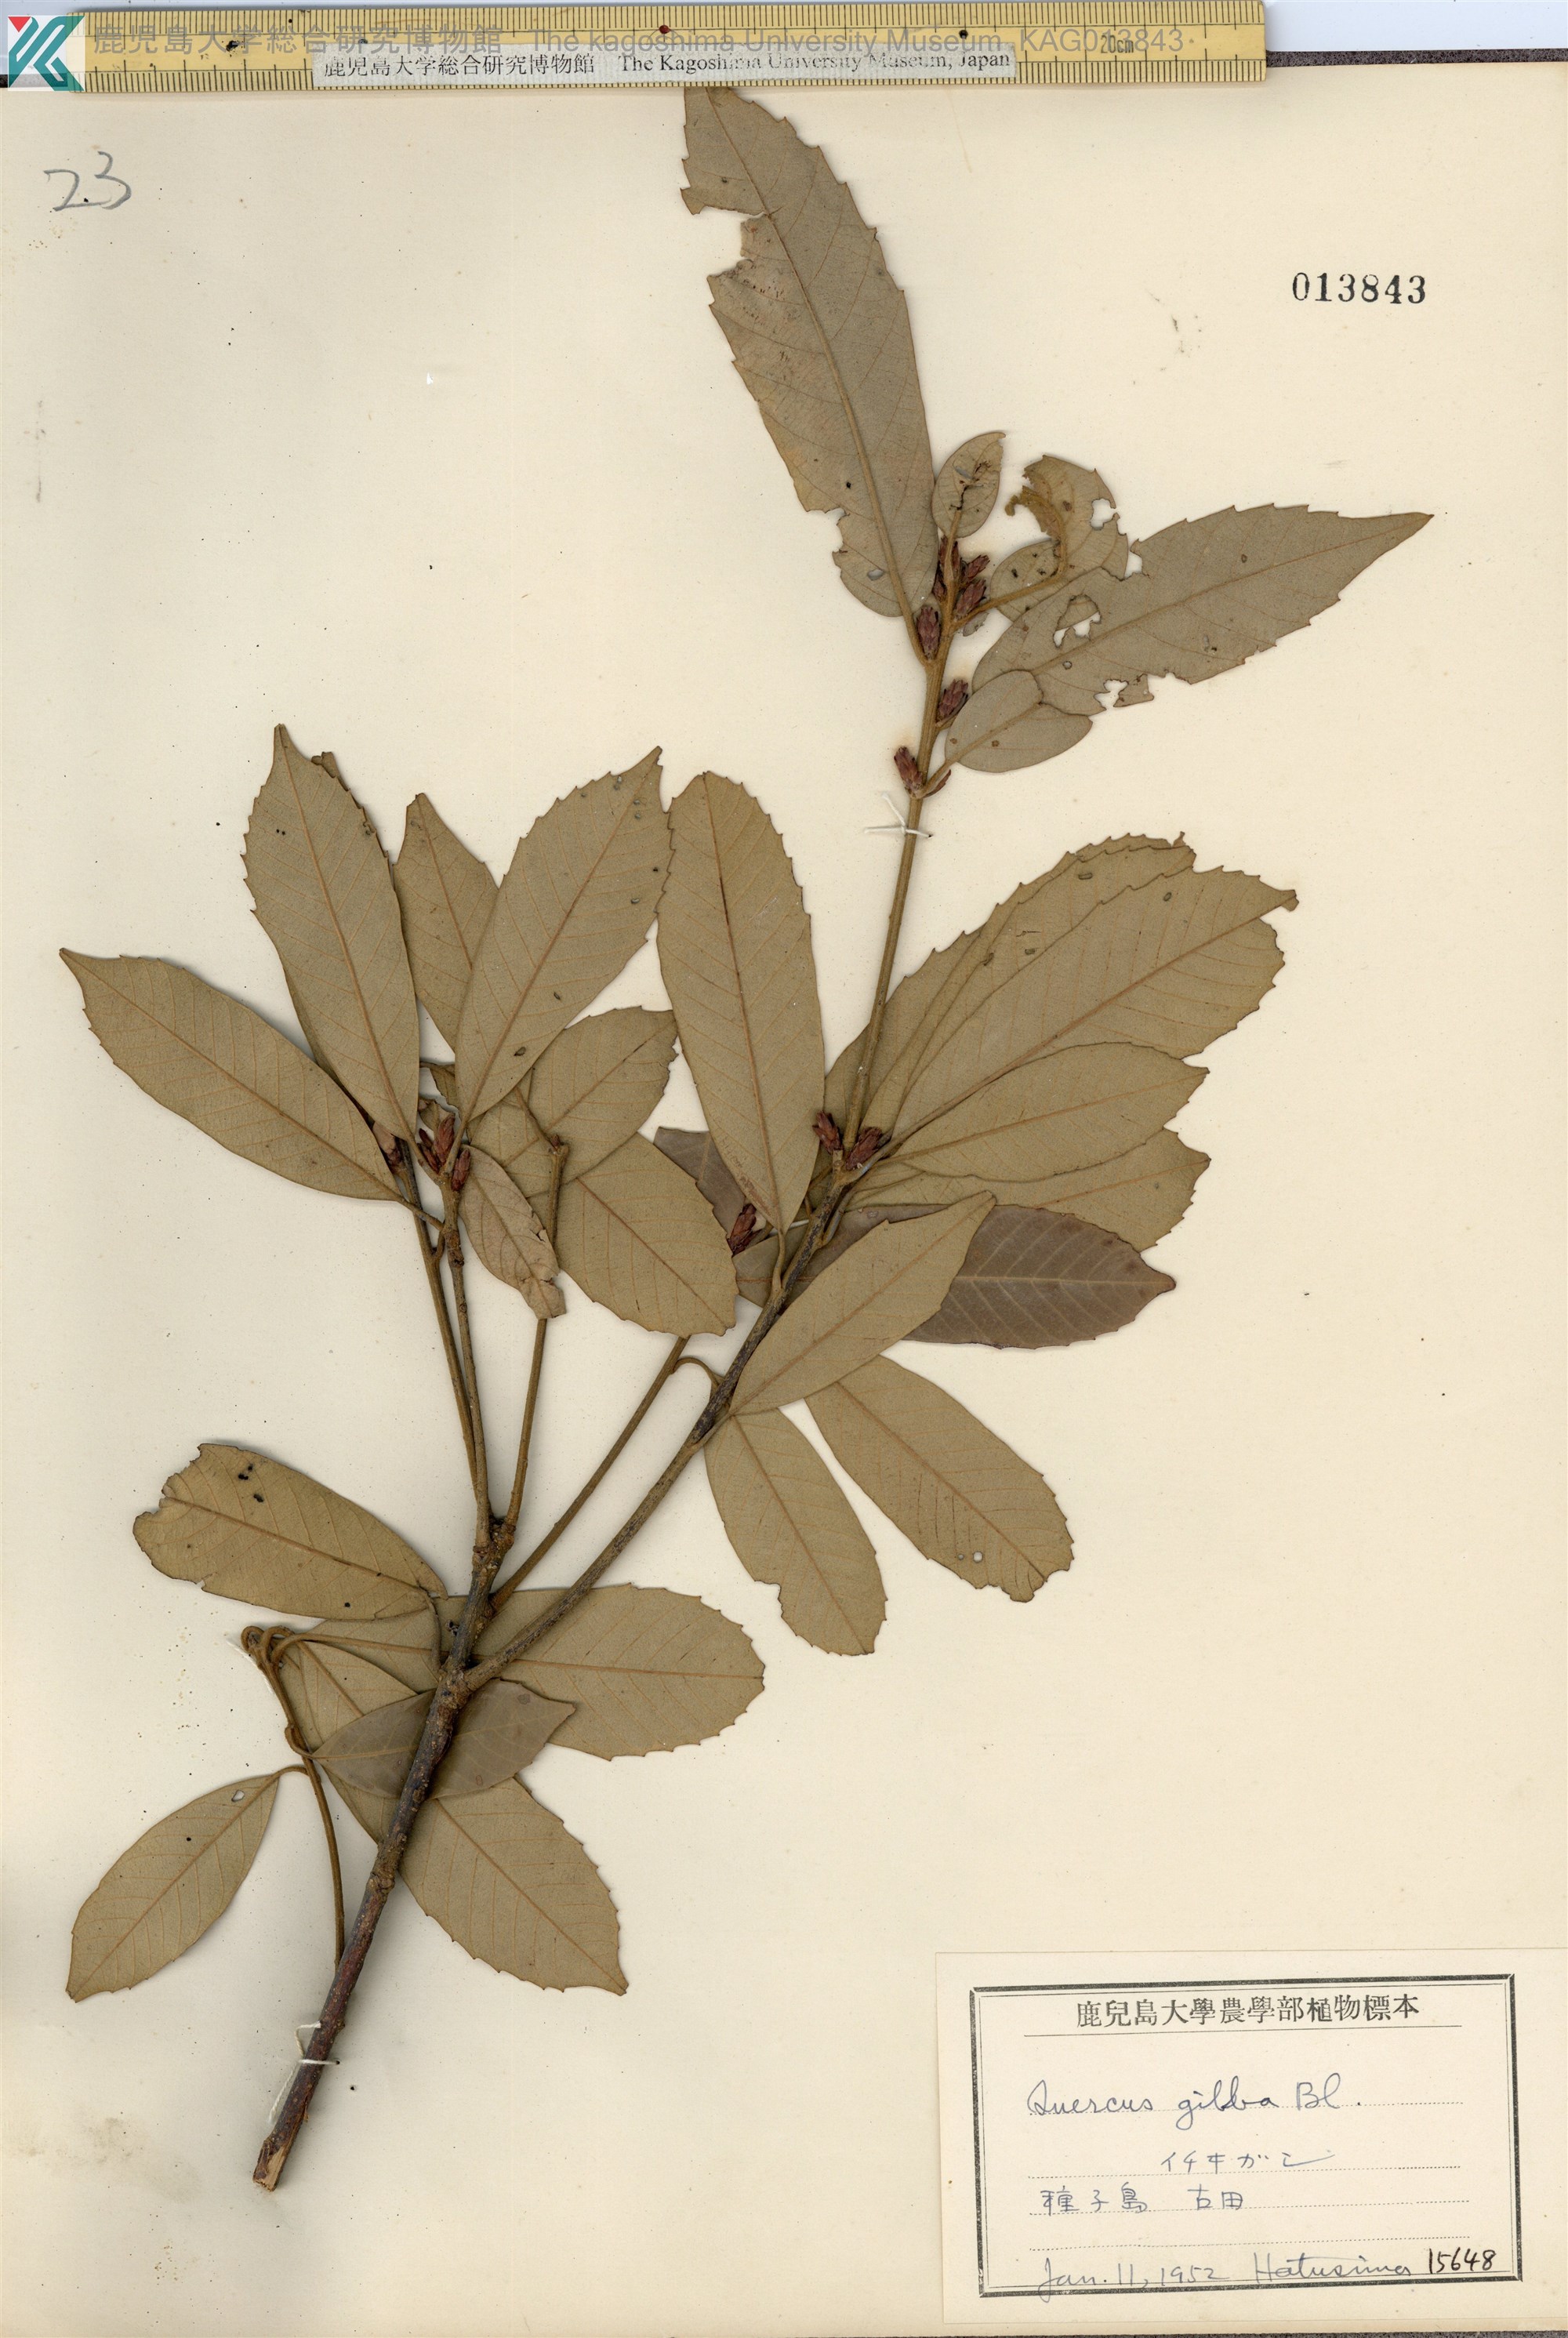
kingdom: Plantae
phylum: Tracheophyta
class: Magnoliopsida
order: Fagales
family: Fagaceae
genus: Quercus
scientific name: Quercus gilva
